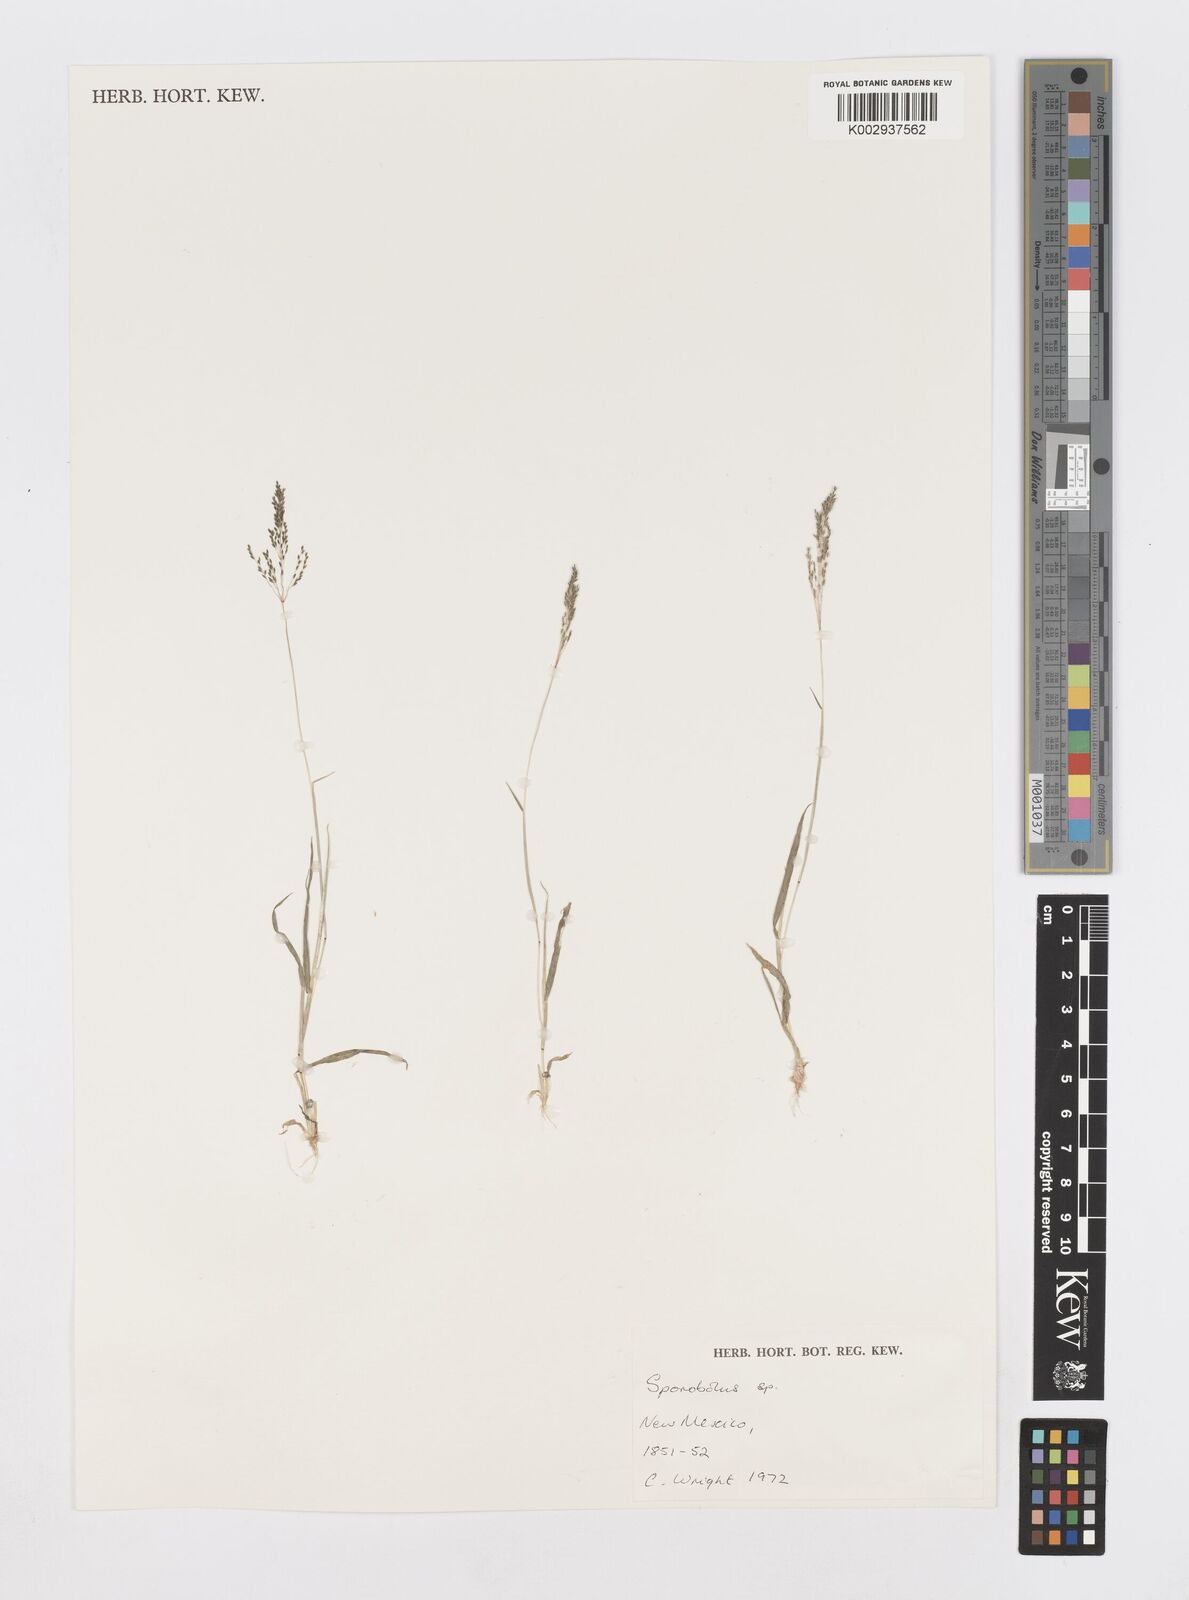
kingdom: Plantae
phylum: Tracheophyta
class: Liliopsida
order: Poales
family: Poaceae
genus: Sporobolus
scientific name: Sporobolus
